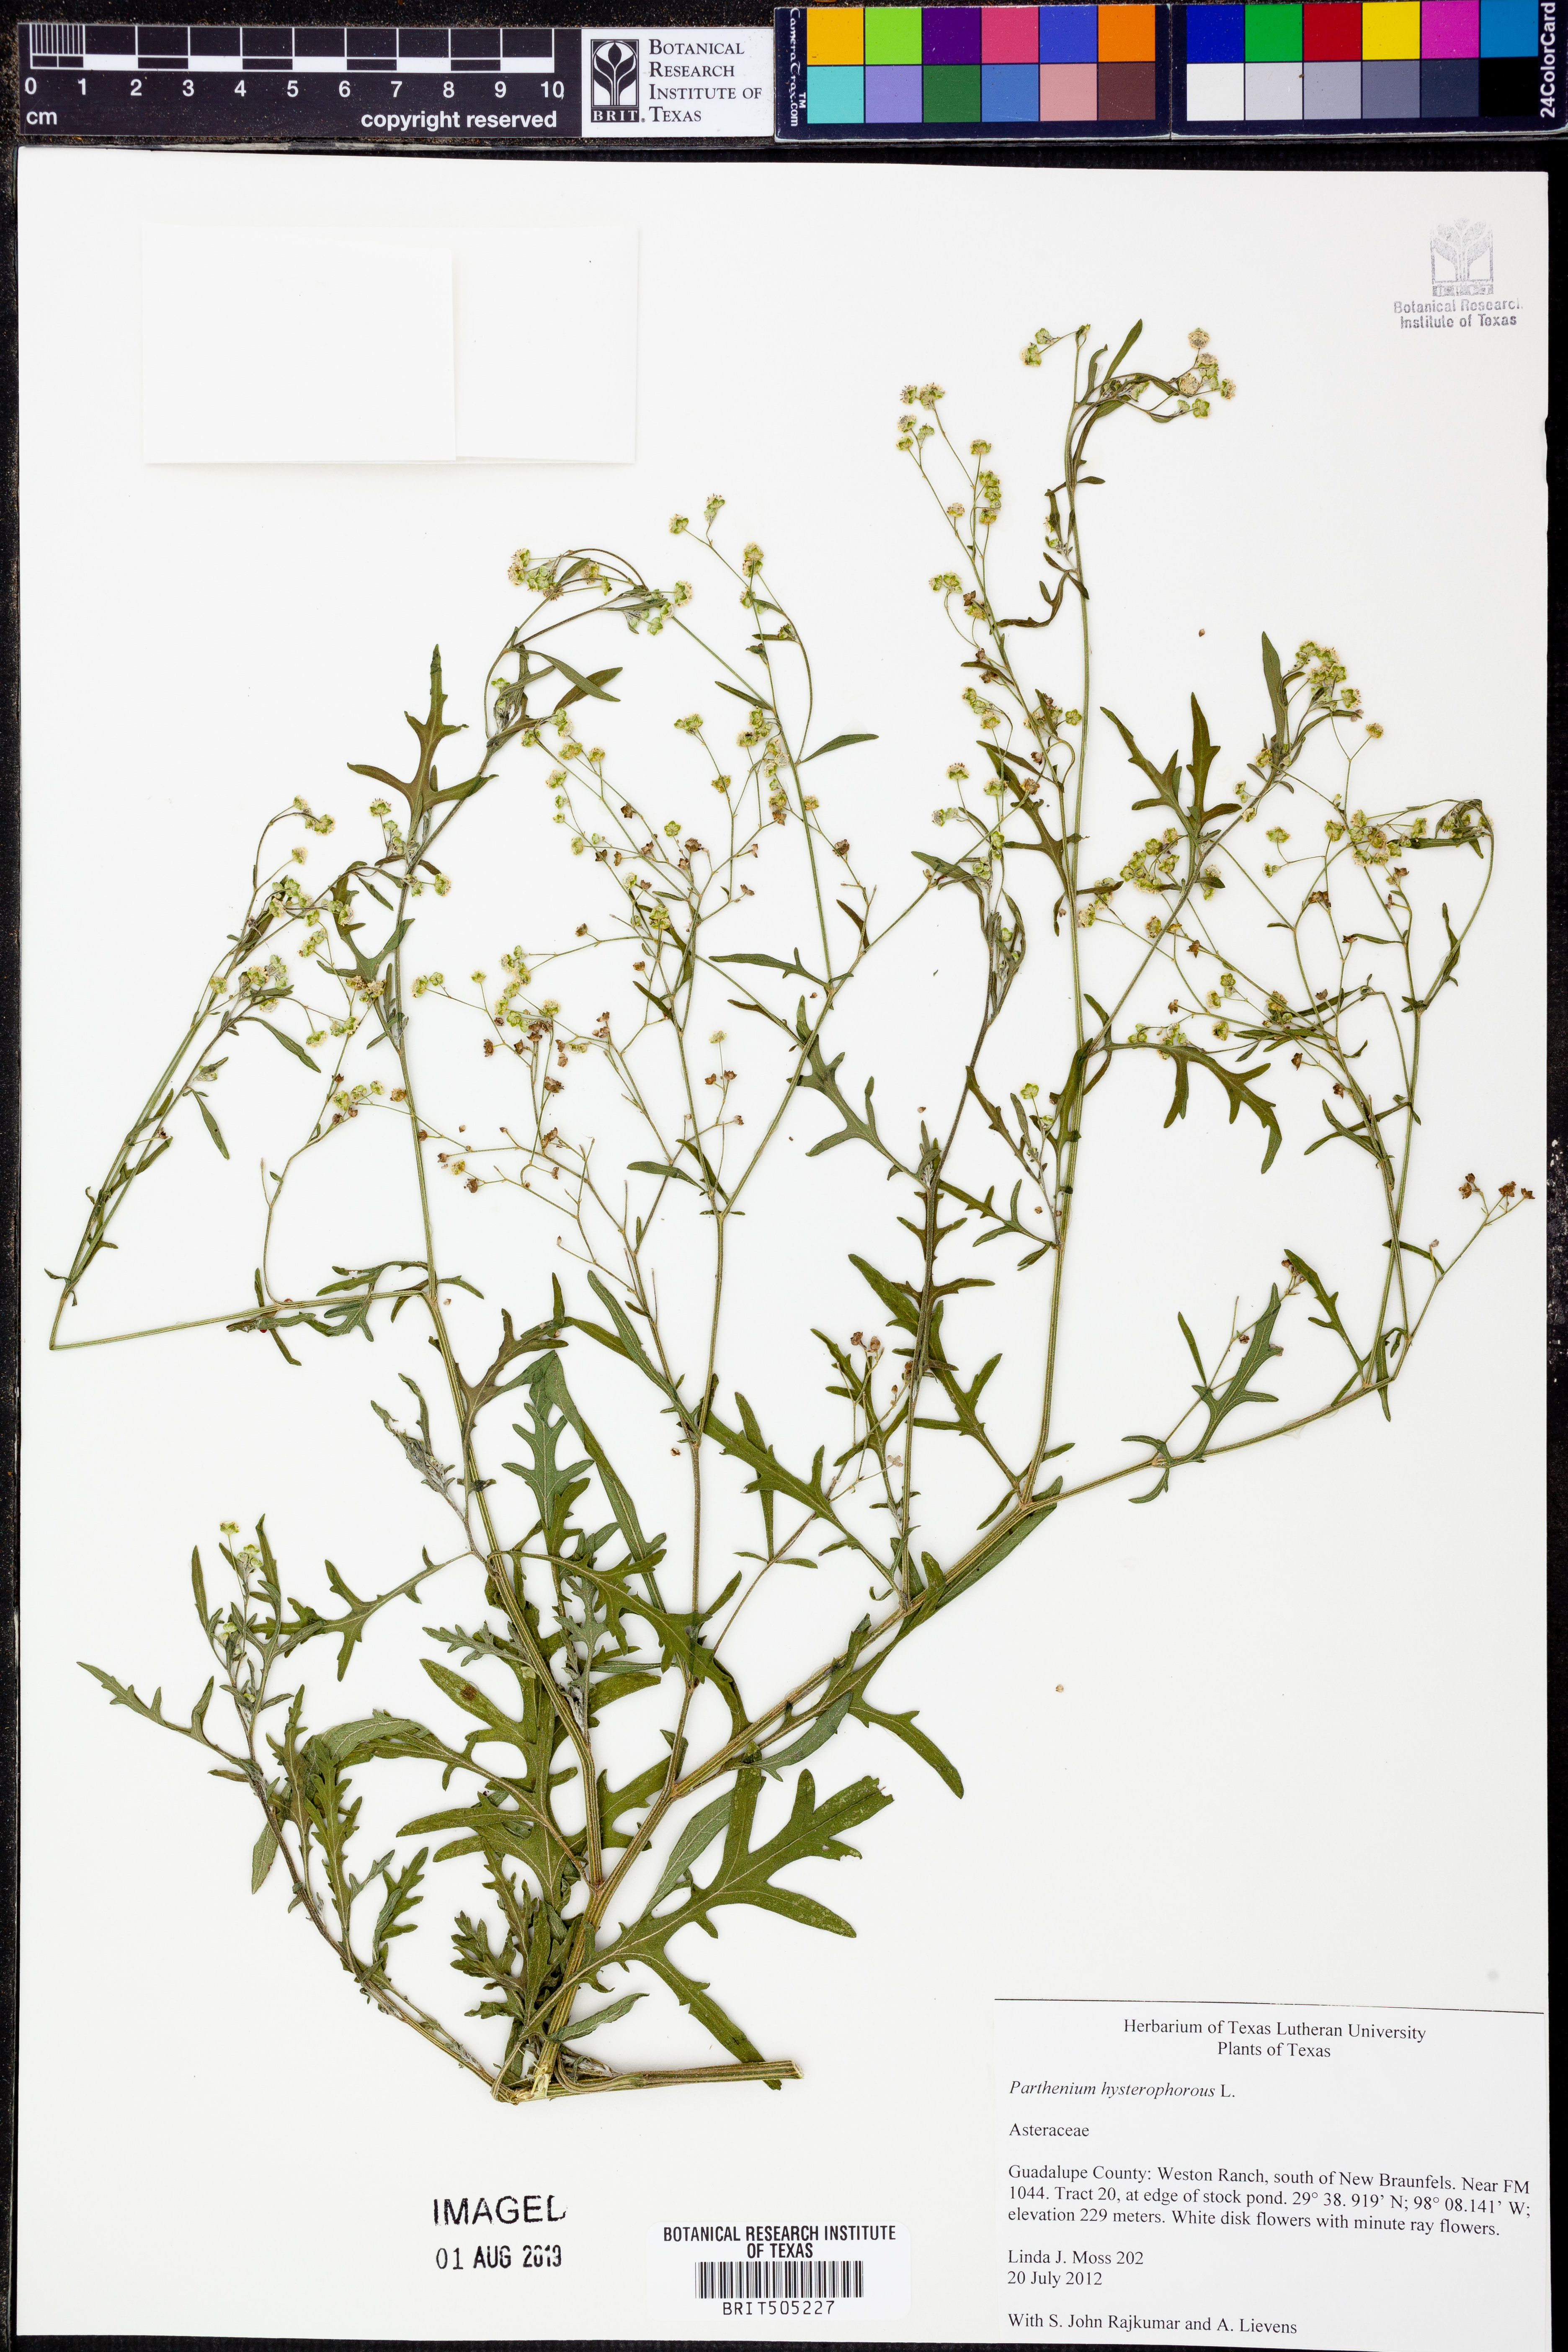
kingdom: Plantae
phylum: Tracheophyta
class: Magnoliopsida
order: Asterales
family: Asteraceae
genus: Parthenium
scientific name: Parthenium hysterophorus
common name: Santa maria feverfew
